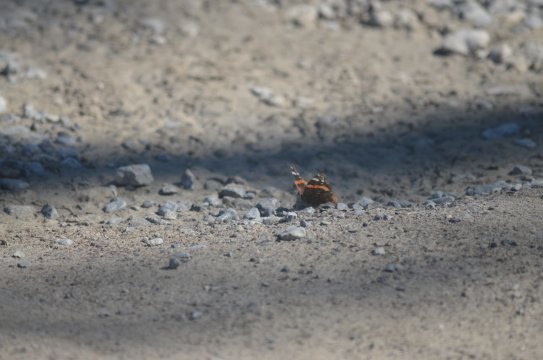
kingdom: Animalia
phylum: Arthropoda
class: Insecta
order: Lepidoptera
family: Nymphalidae
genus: Vanessa
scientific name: Vanessa atalanta
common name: Red Admiral
